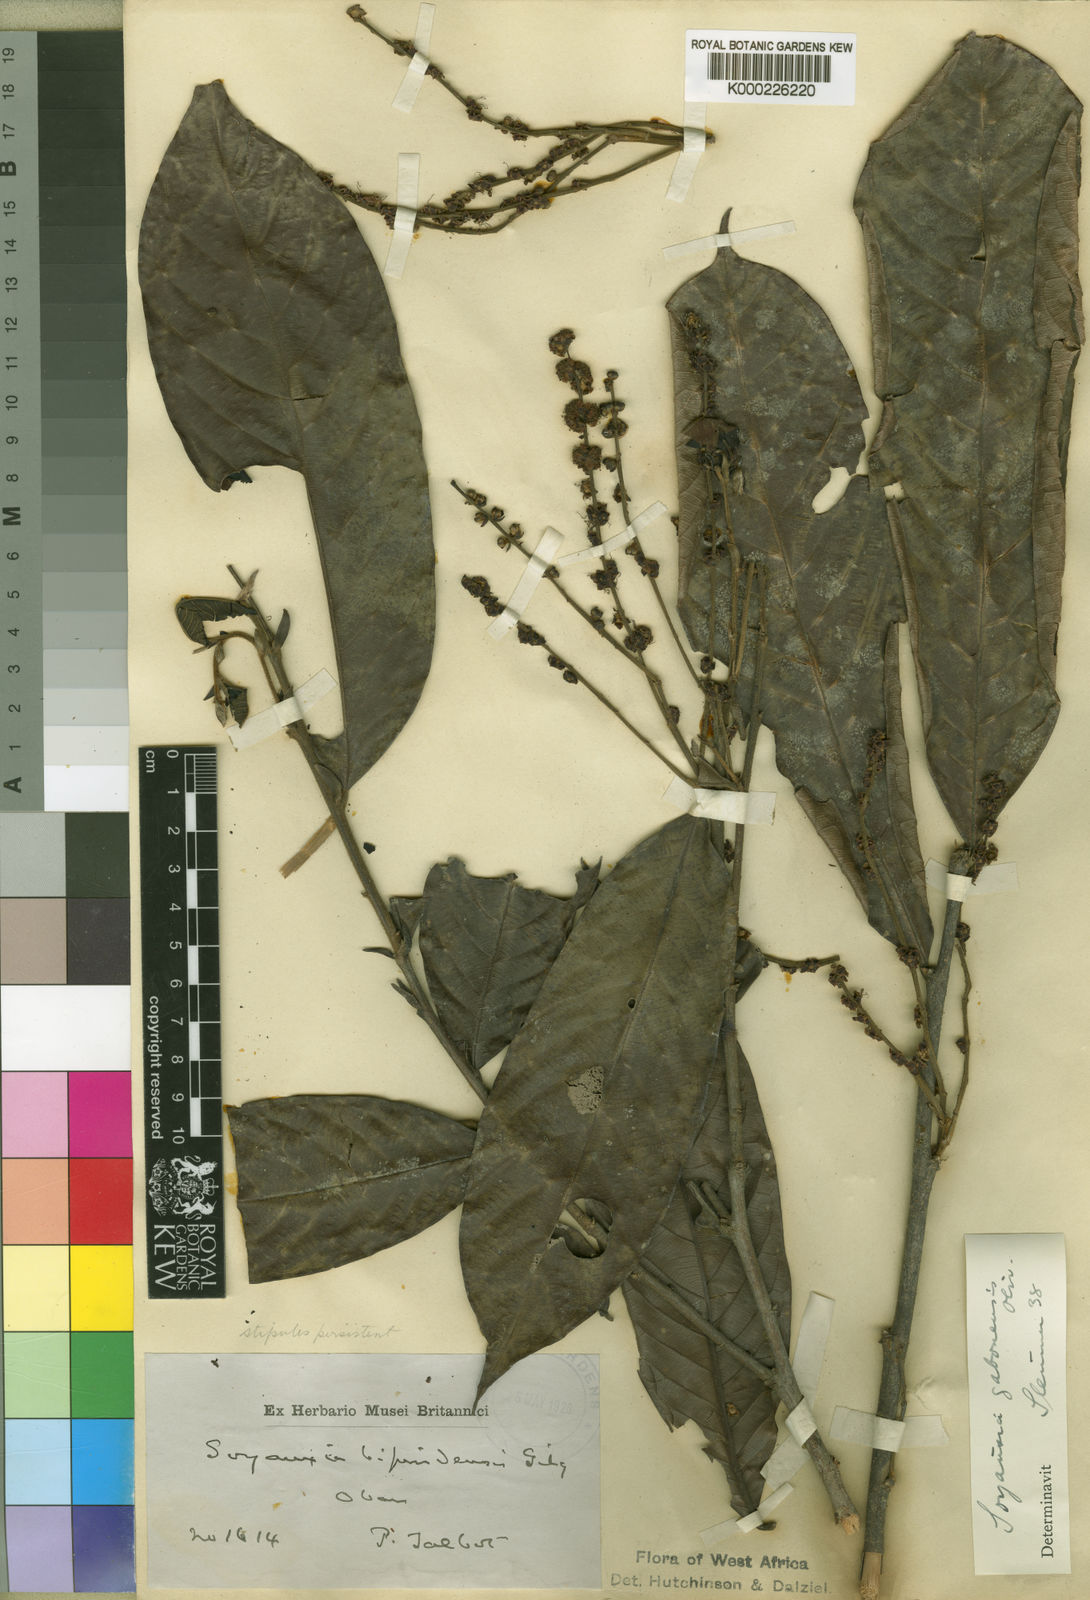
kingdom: Plantae
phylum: Tracheophyta
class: Magnoliopsida
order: Saxifragales
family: Peridiscaceae
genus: Soyauxia
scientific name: Soyauxia gabonensis
